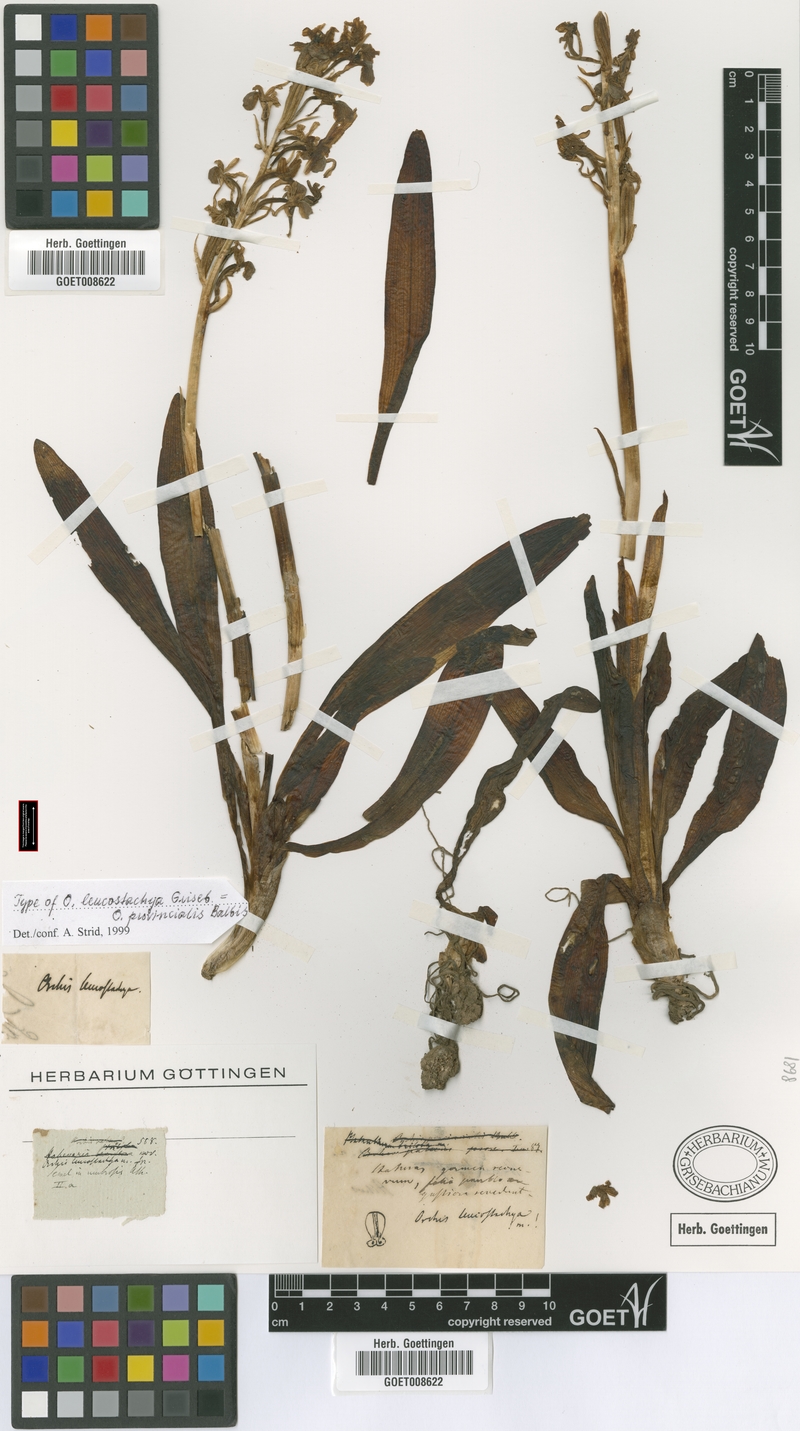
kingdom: Plantae
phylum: Tracheophyta
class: Liliopsida
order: Asparagales
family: Orchidaceae
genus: Orchis
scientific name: Orchis provincialis
